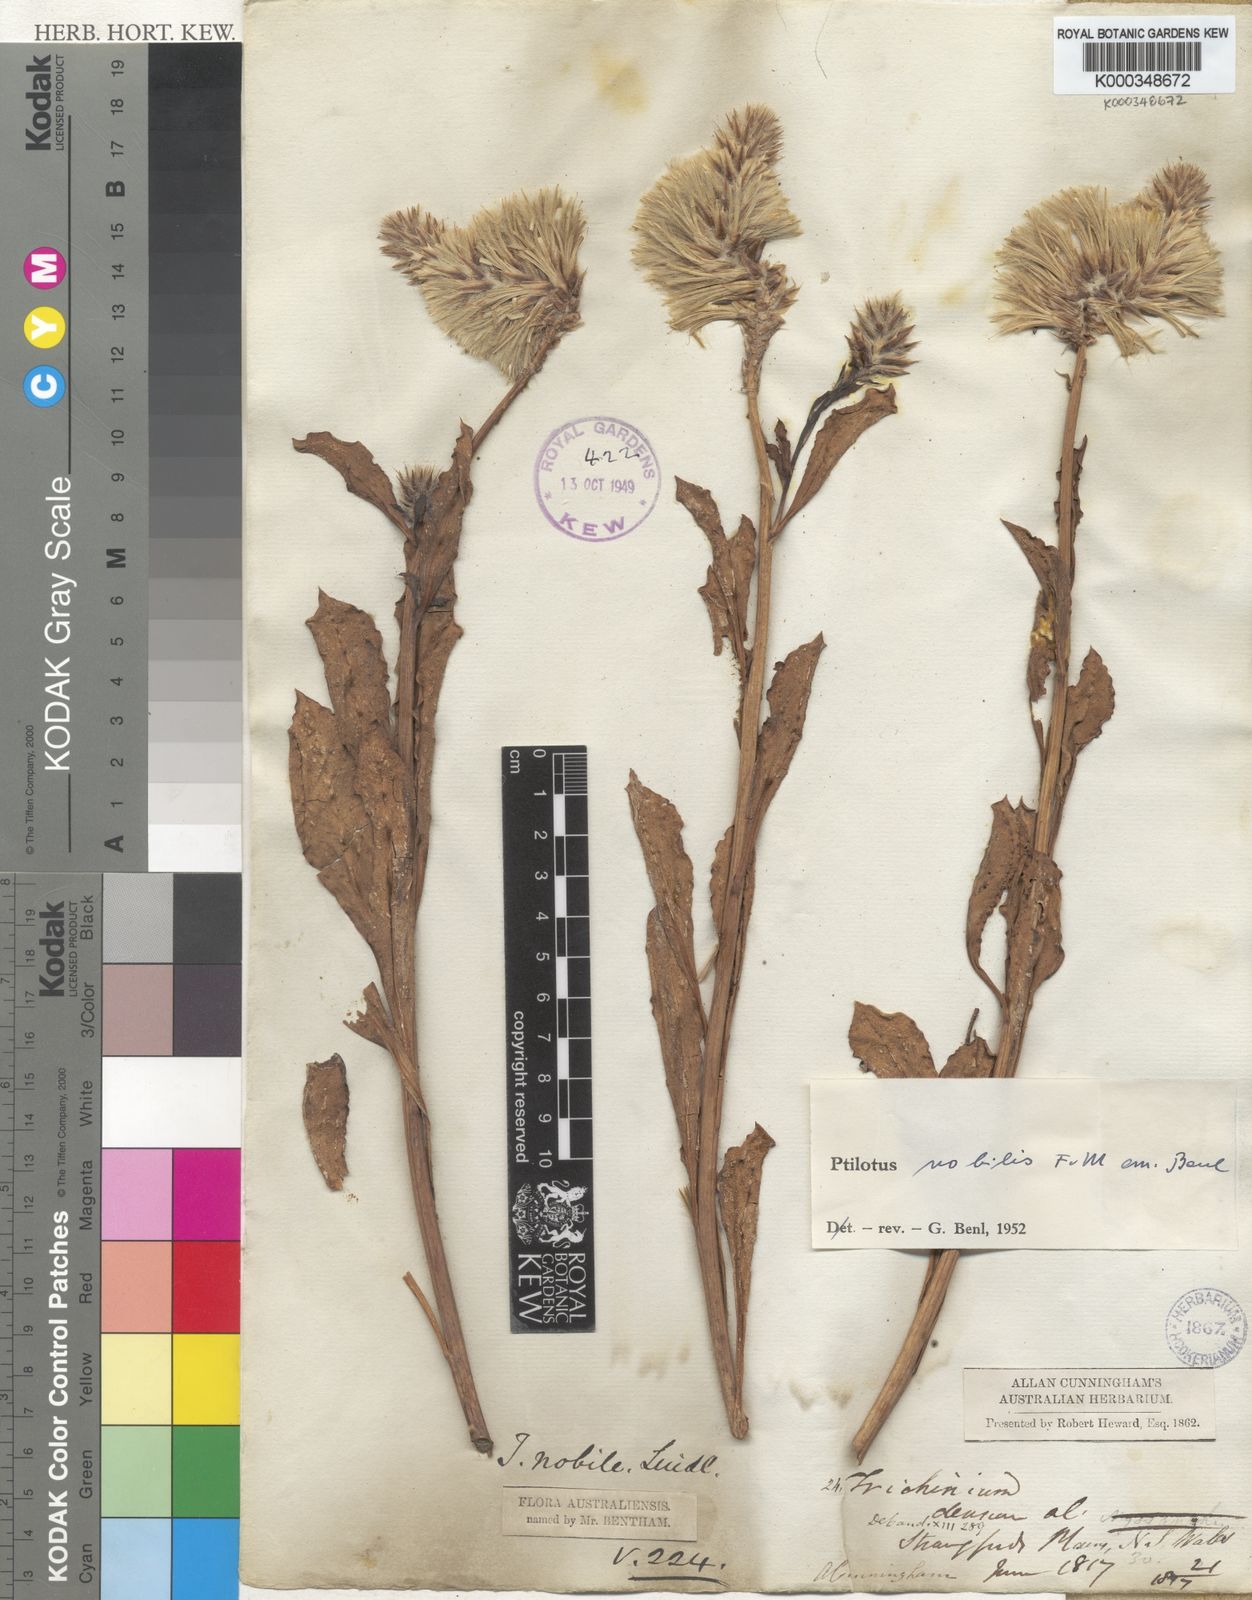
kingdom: Plantae
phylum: Tracheophyta
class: Magnoliopsida
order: Caryophyllales
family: Amaranthaceae
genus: Ptilotus
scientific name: Ptilotus nobilis
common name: Regal-foxtail
